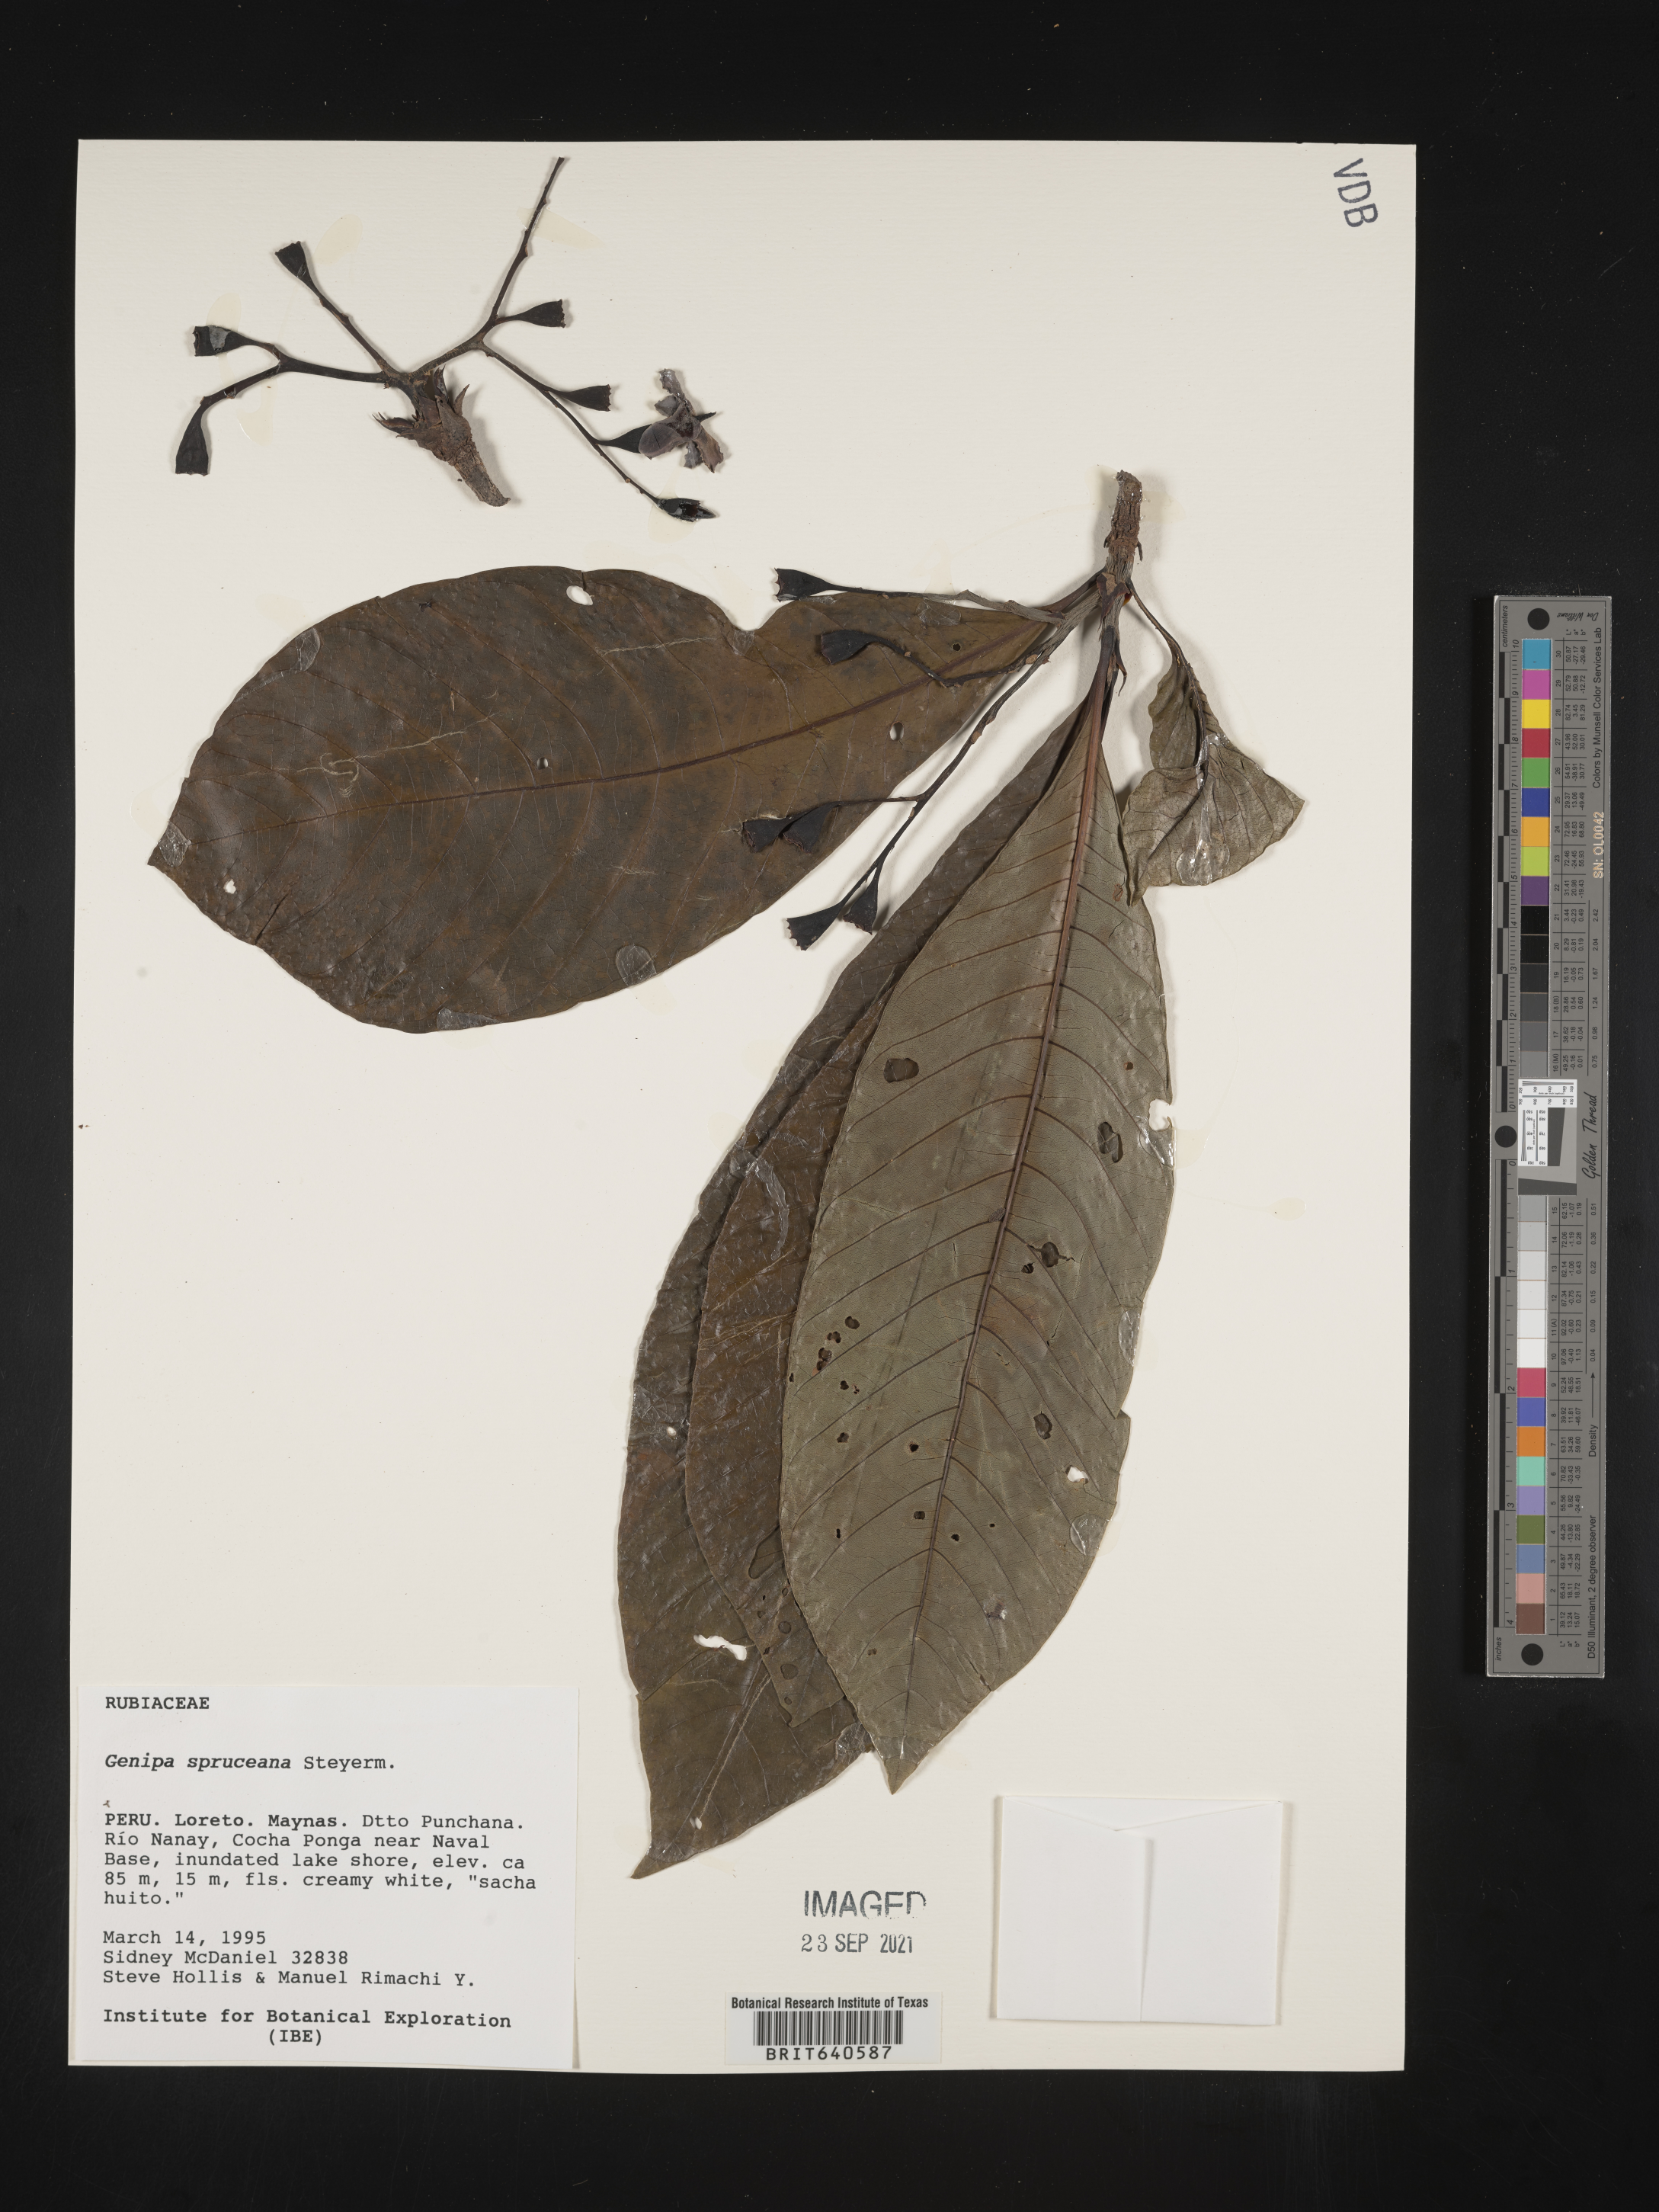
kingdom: Plantae
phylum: Tracheophyta
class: Magnoliopsida
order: Gentianales
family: Rubiaceae
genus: Genipa
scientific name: Genipa
